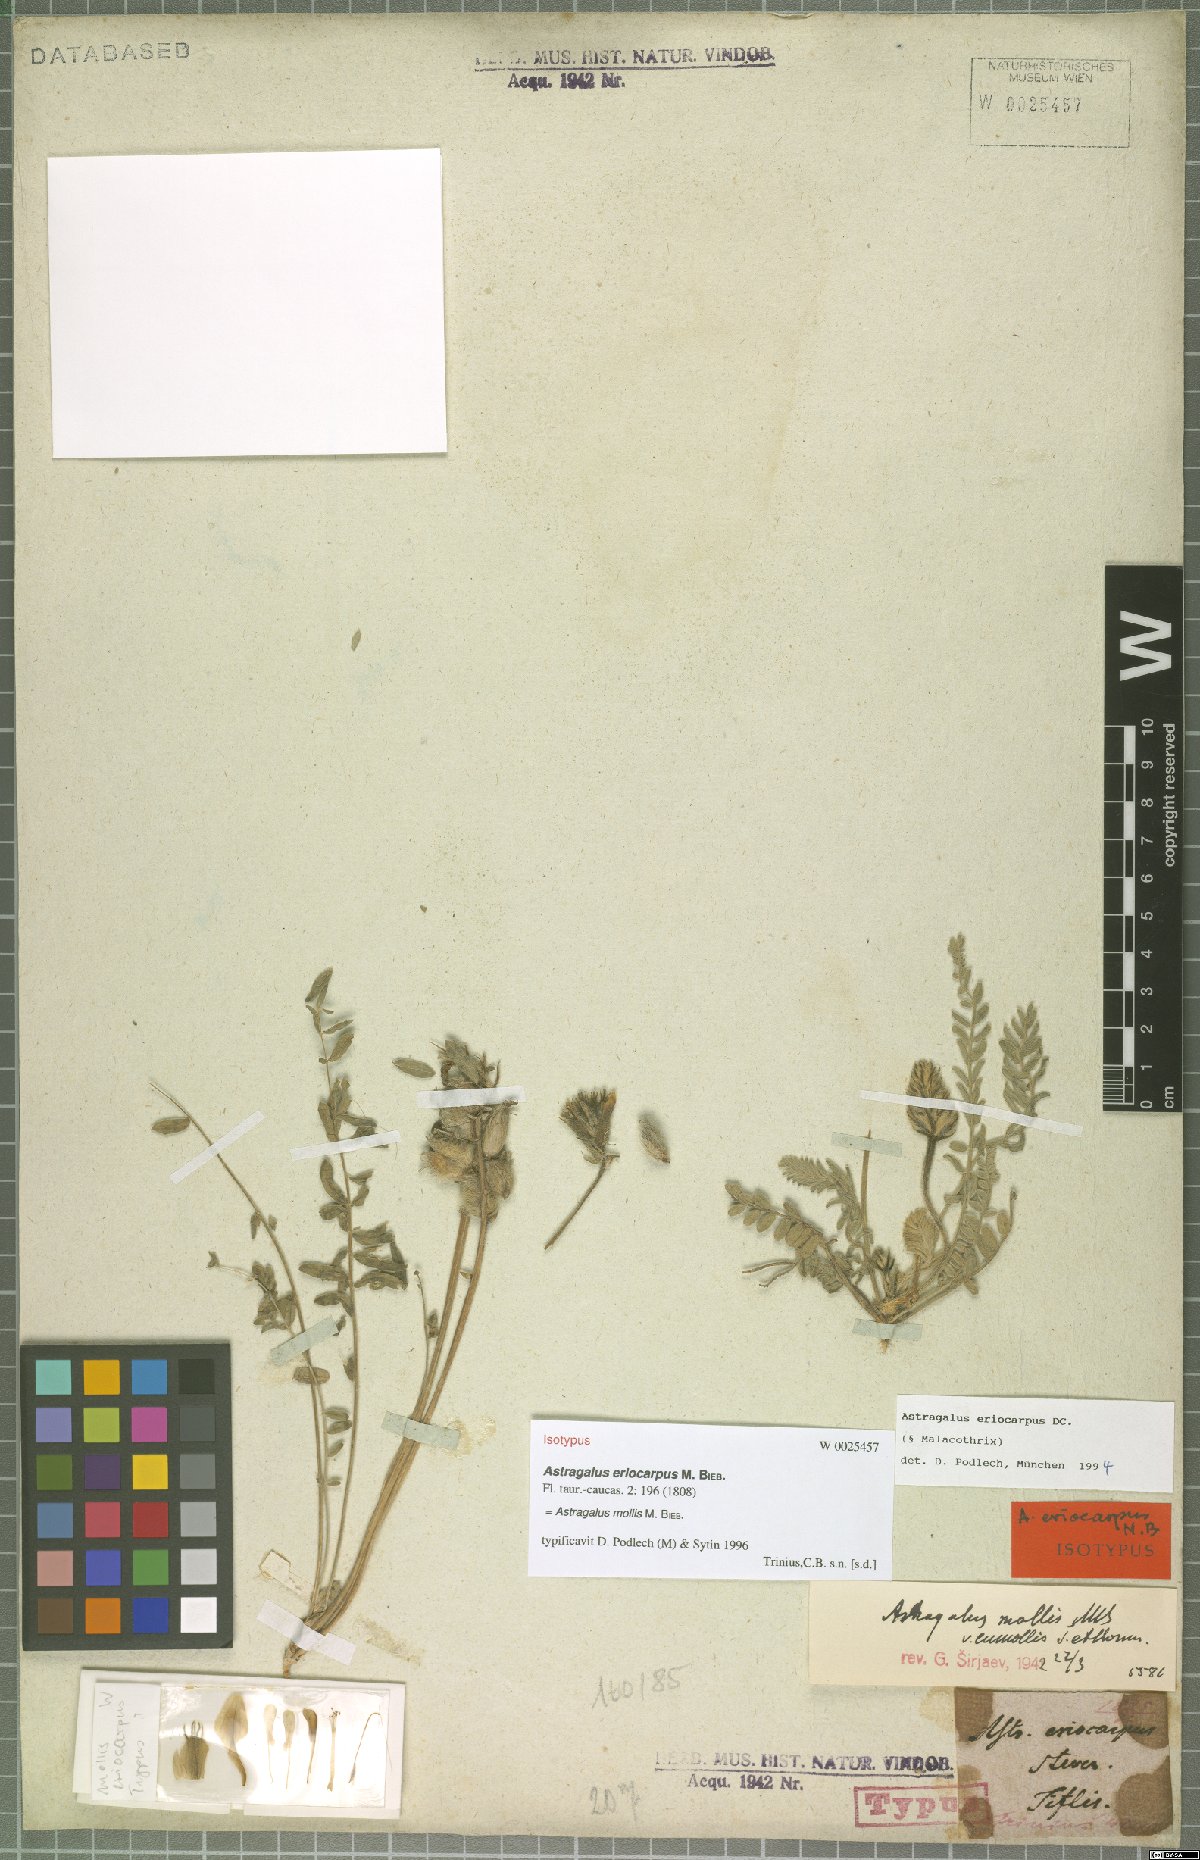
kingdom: Plantae
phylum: Tracheophyta
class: Magnoliopsida
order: Fabales
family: Fabaceae
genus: Astragalus
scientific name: Astragalus mollis
